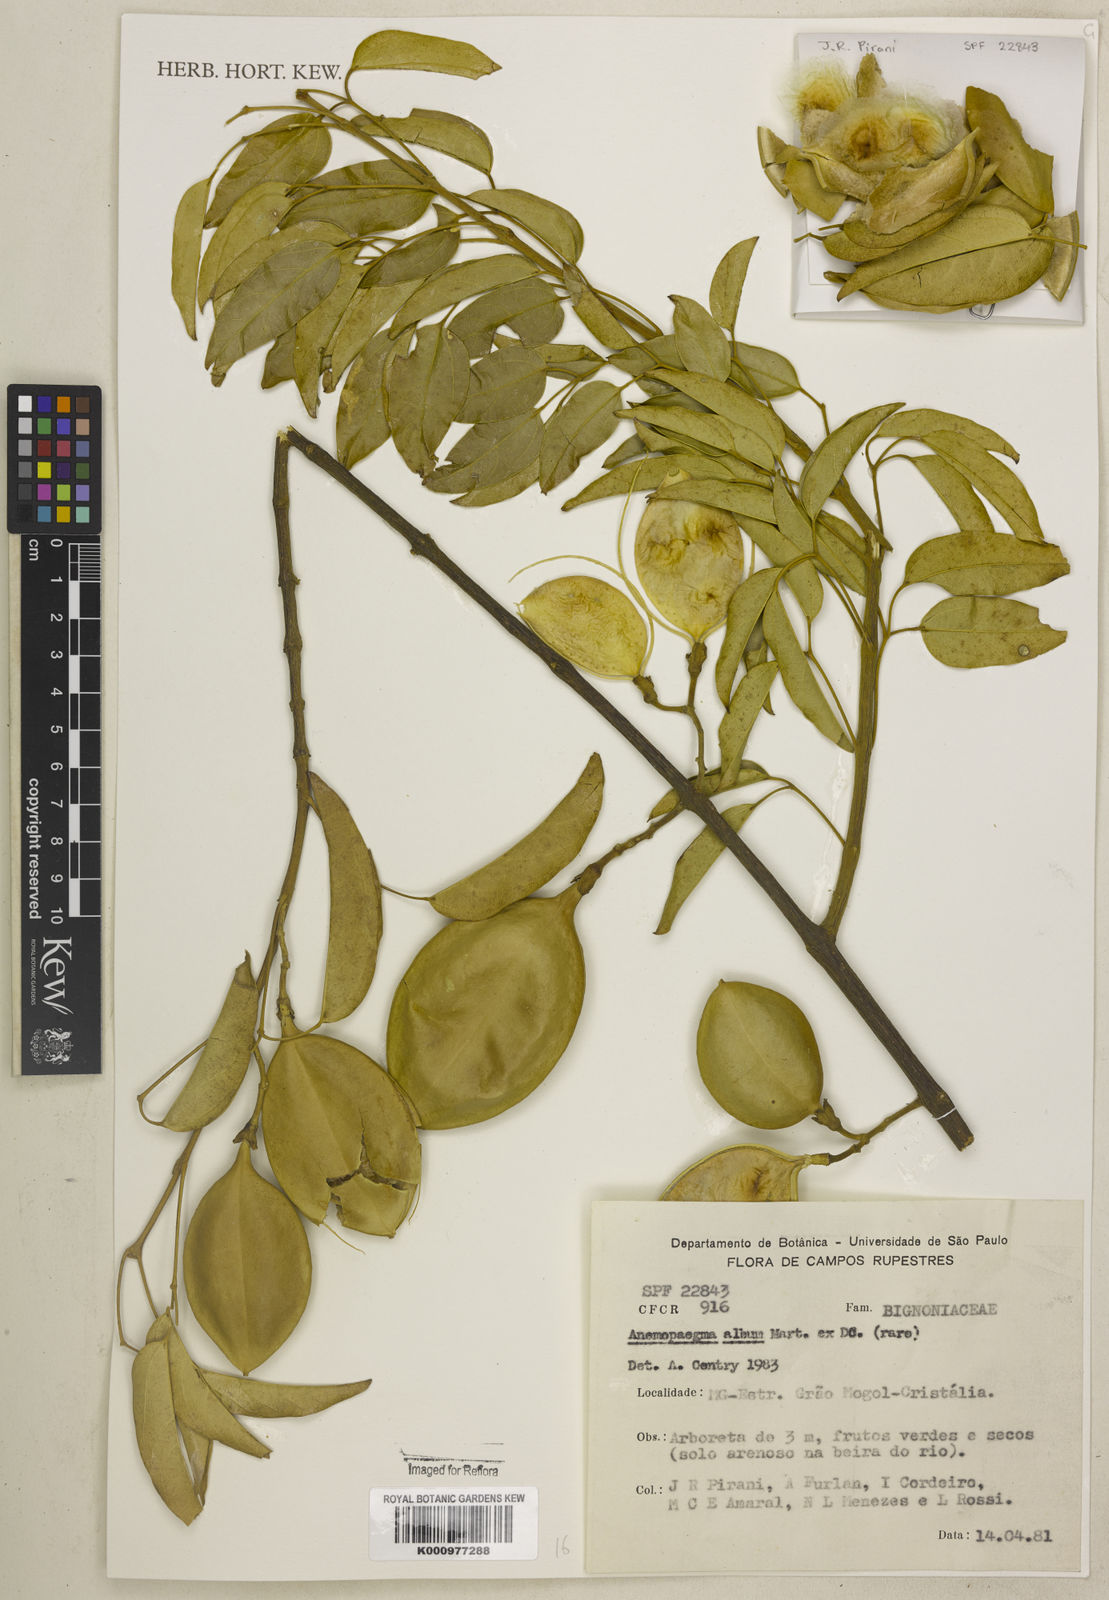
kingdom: Plantae
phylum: Tracheophyta
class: Magnoliopsida
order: Lamiales
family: Bignoniaceae
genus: Anemopaegma
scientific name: Anemopaegma album
